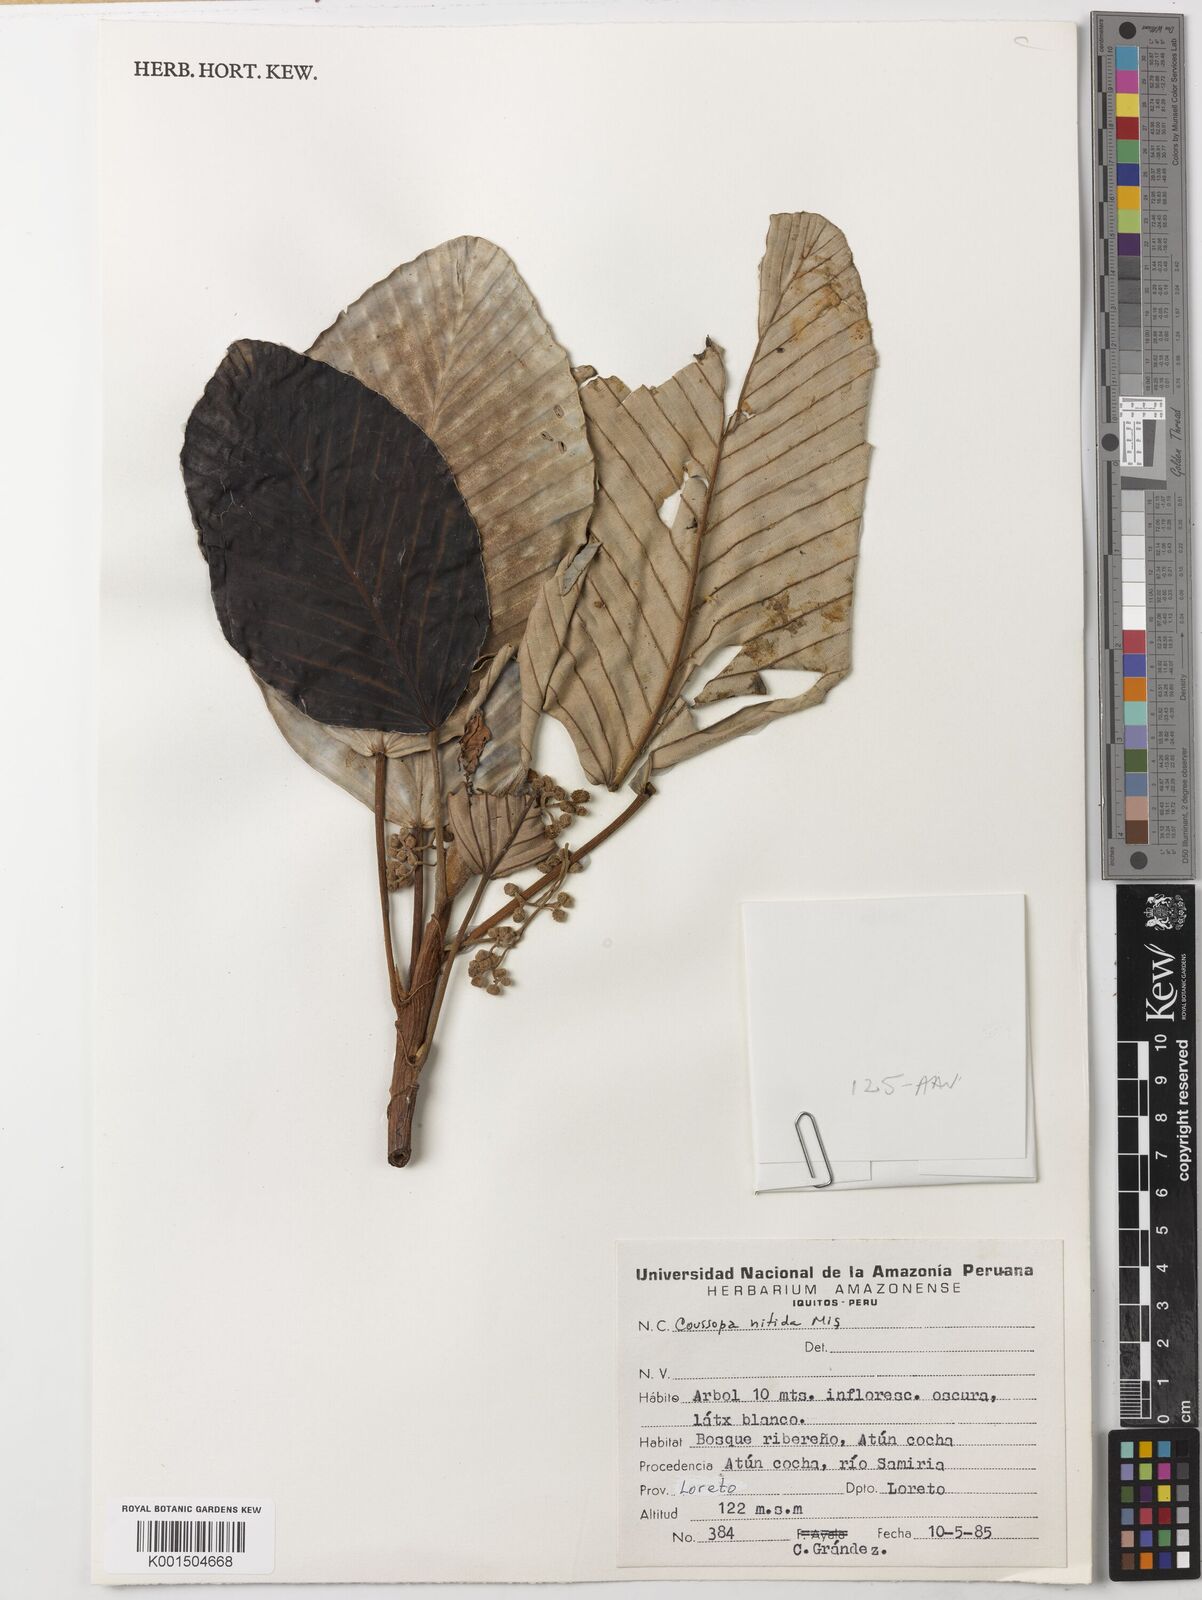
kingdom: Plantae
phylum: Tracheophyta
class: Magnoliopsida
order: Rosales
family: Urticaceae
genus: Coussapoa
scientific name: Coussapoa nitida
